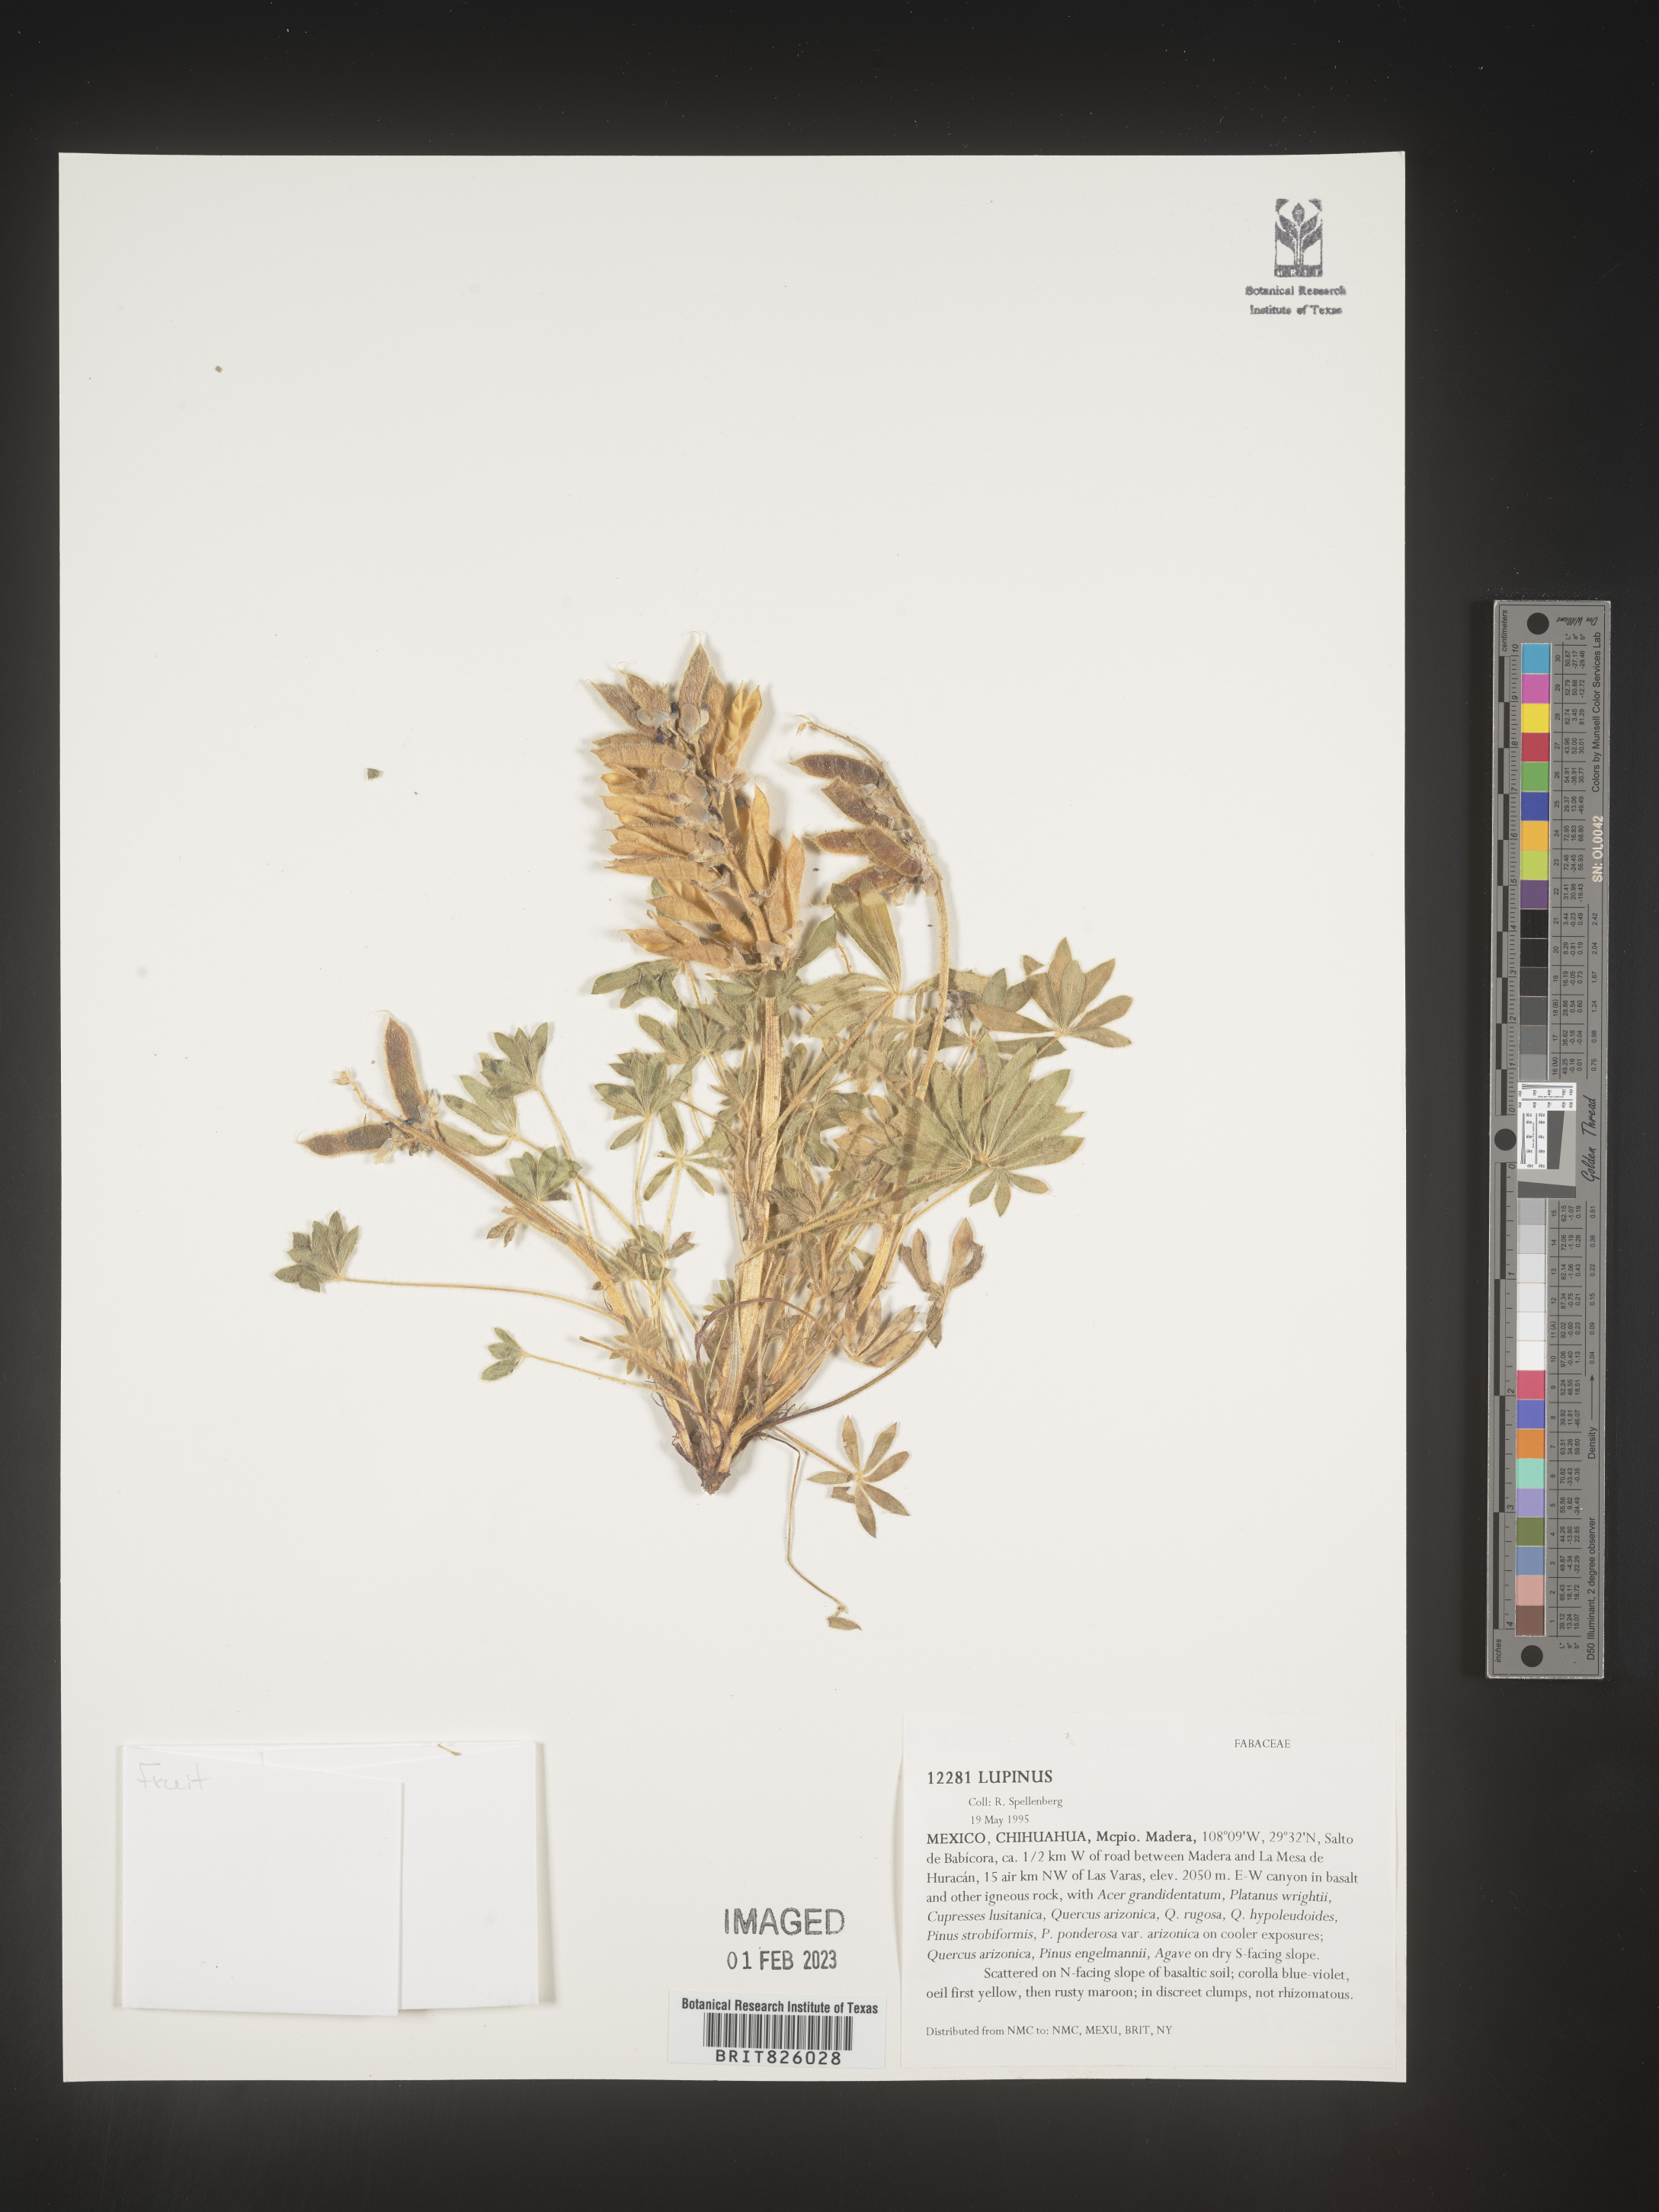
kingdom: Plantae
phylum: Tracheophyta
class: Magnoliopsida
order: Fabales
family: Fabaceae
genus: Lupinus
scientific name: Lupinus
